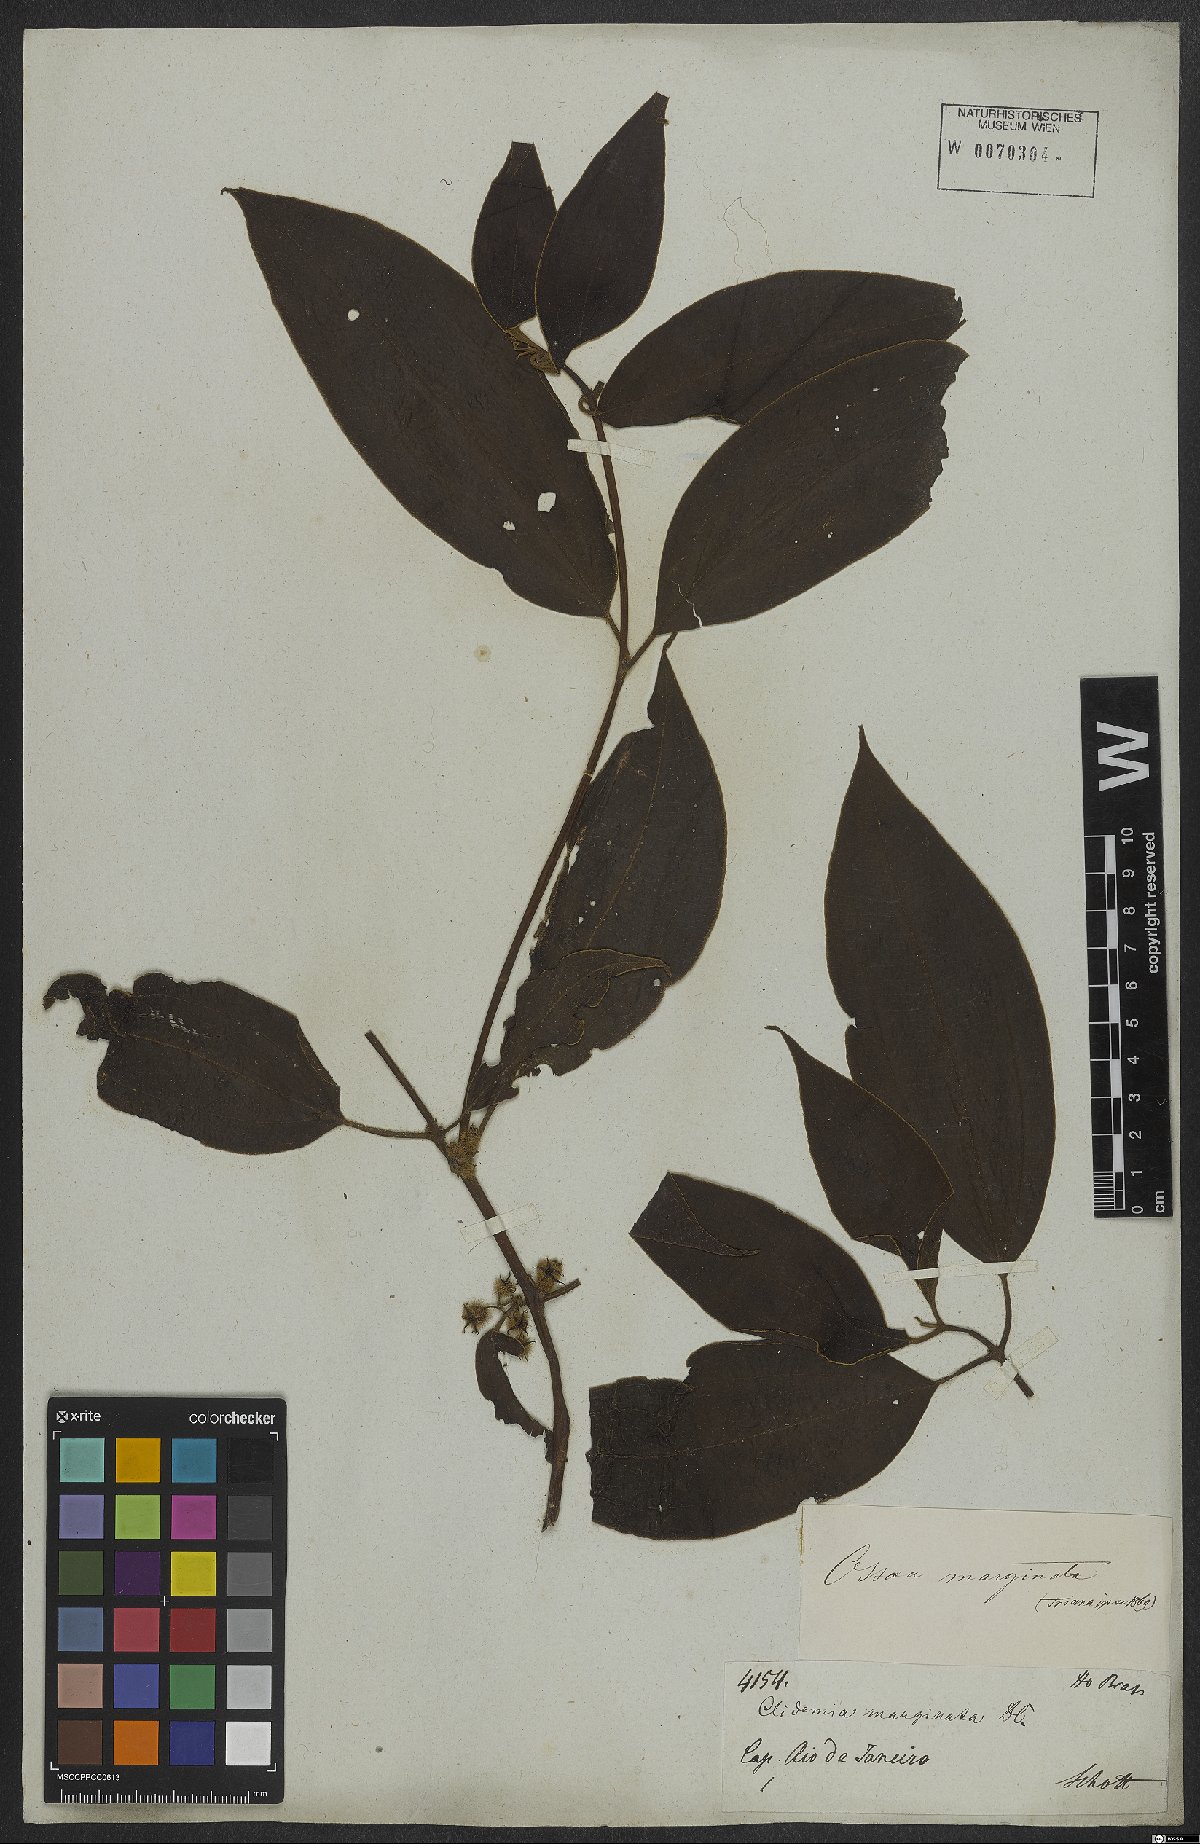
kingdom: Plantae
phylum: Tracheophyta
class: Magnoliopsida
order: Myrtales
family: Melastomataceae
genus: Miconia
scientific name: Miconia leamarginata
